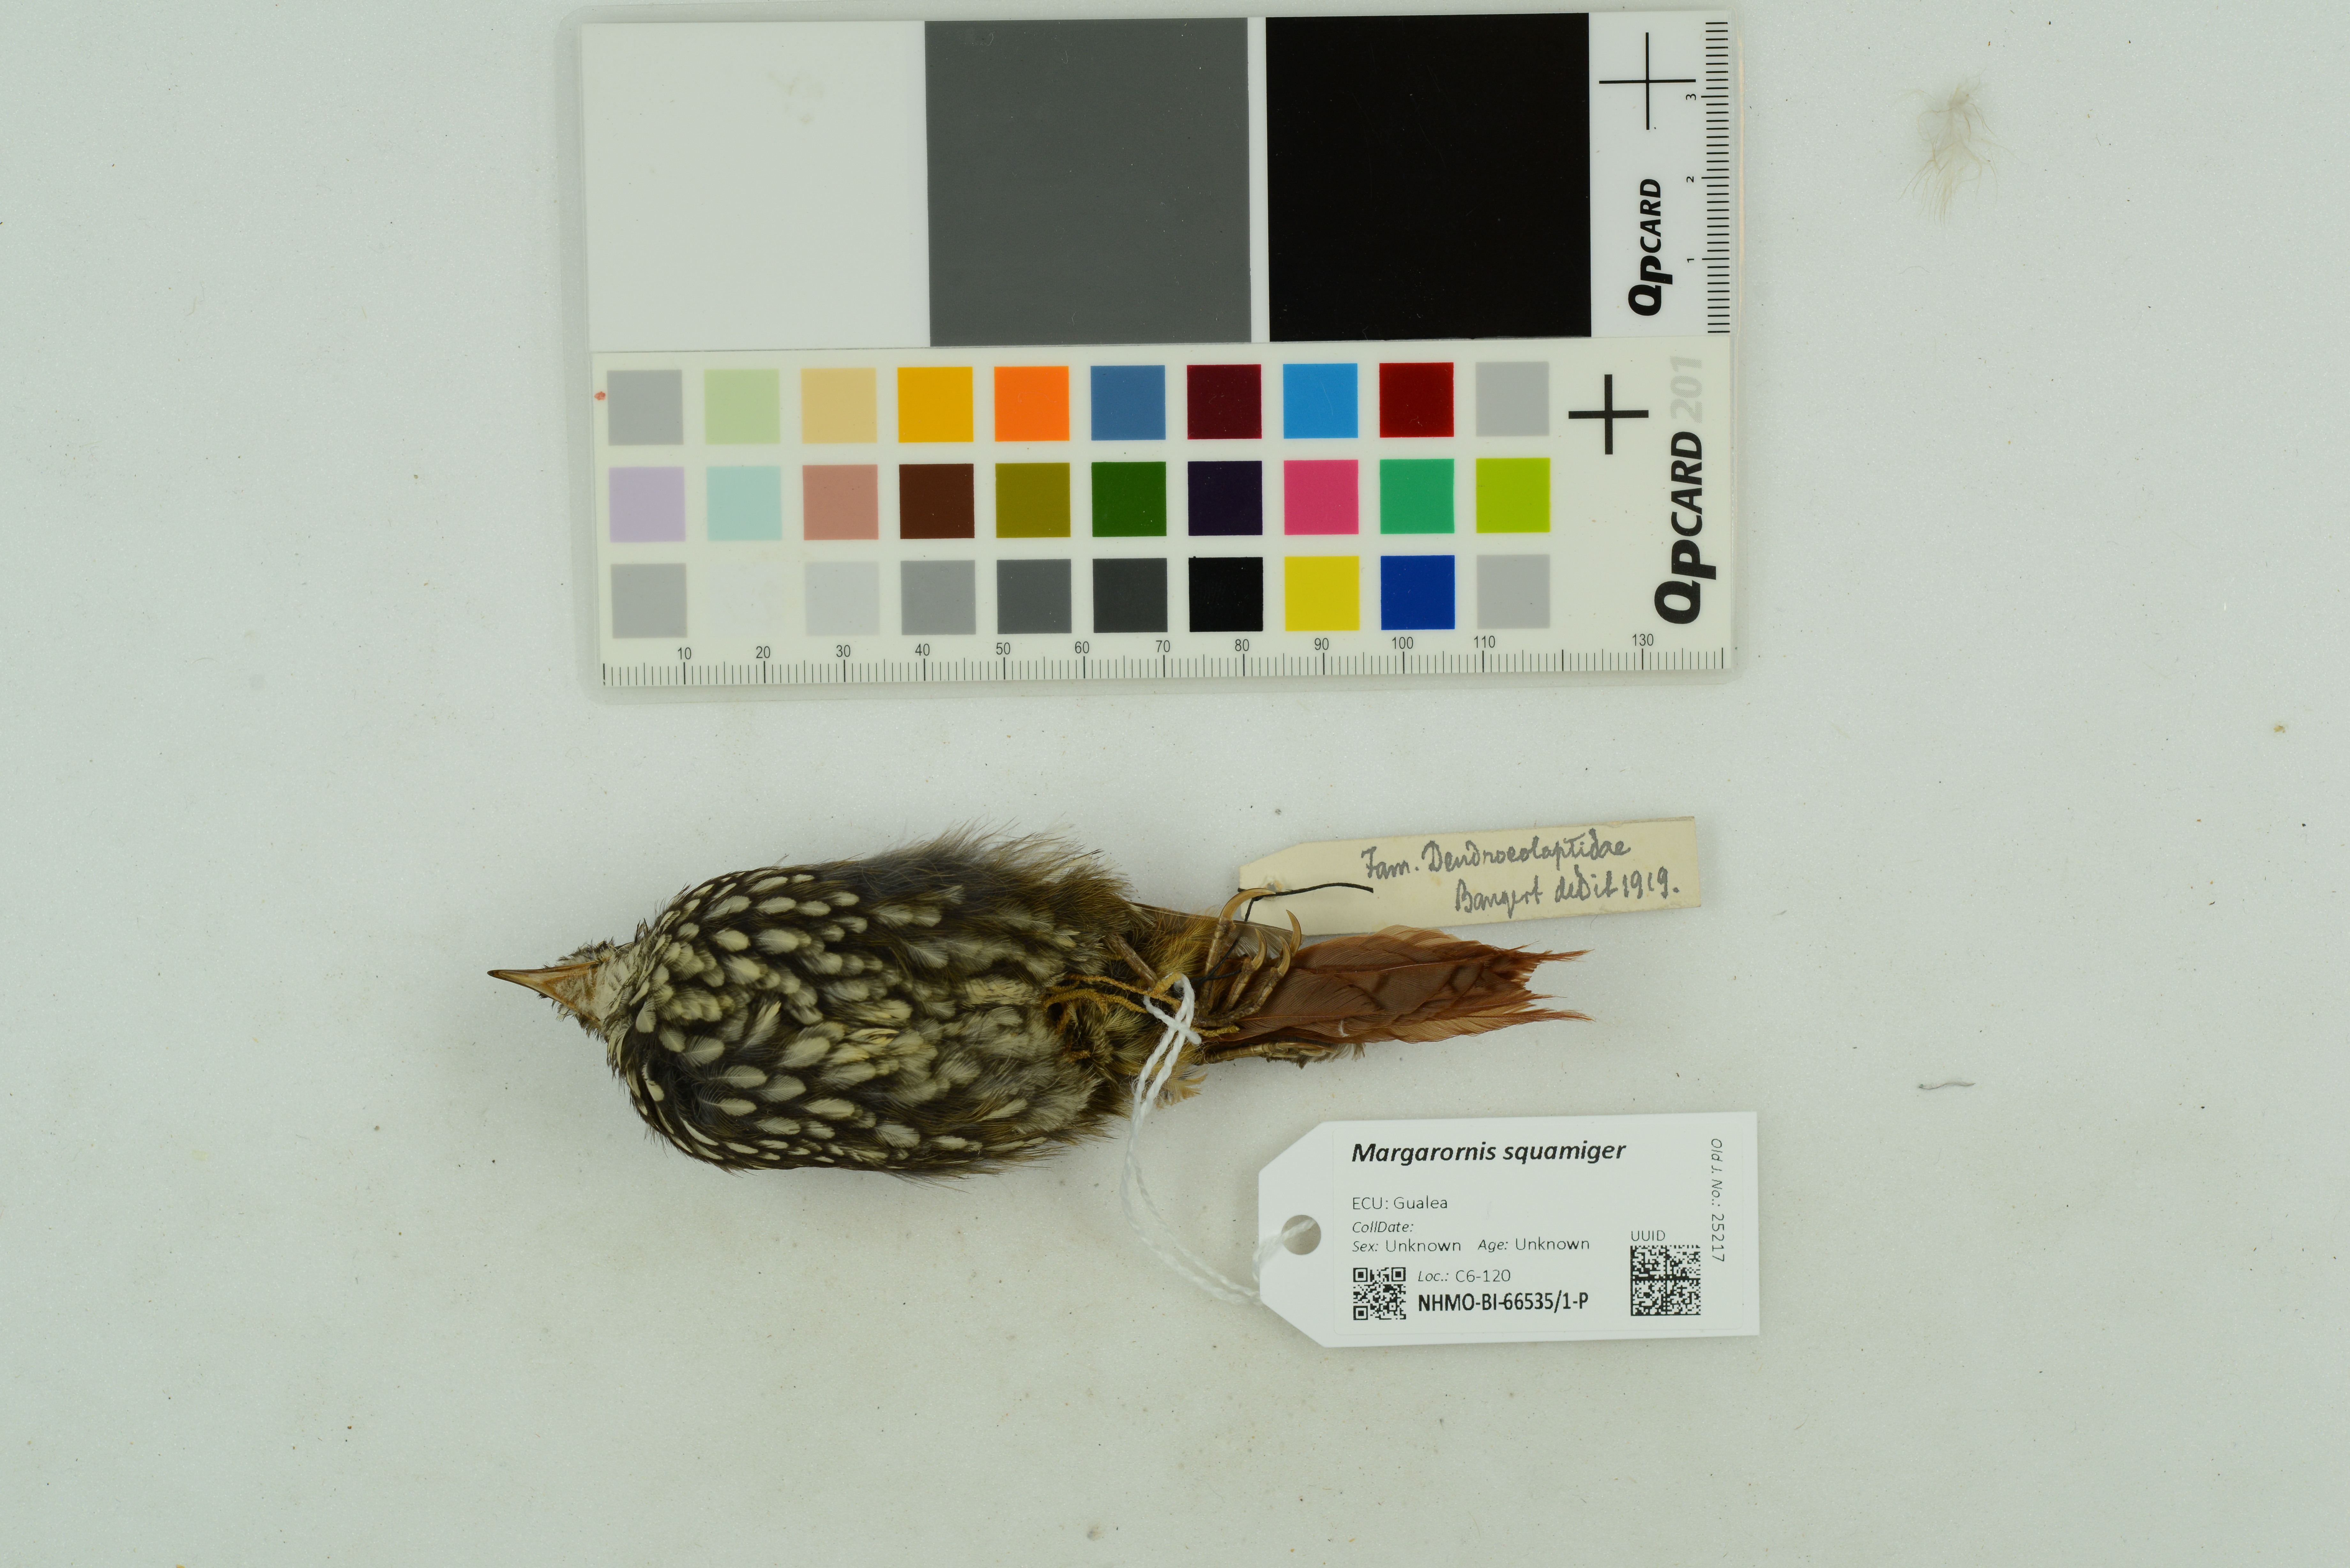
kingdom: Animalia
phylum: Chordata
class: Aves
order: Passeriformes
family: Furnariidae
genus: Margarornis
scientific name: Margarornis squamiger
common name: Pearled treerunner
